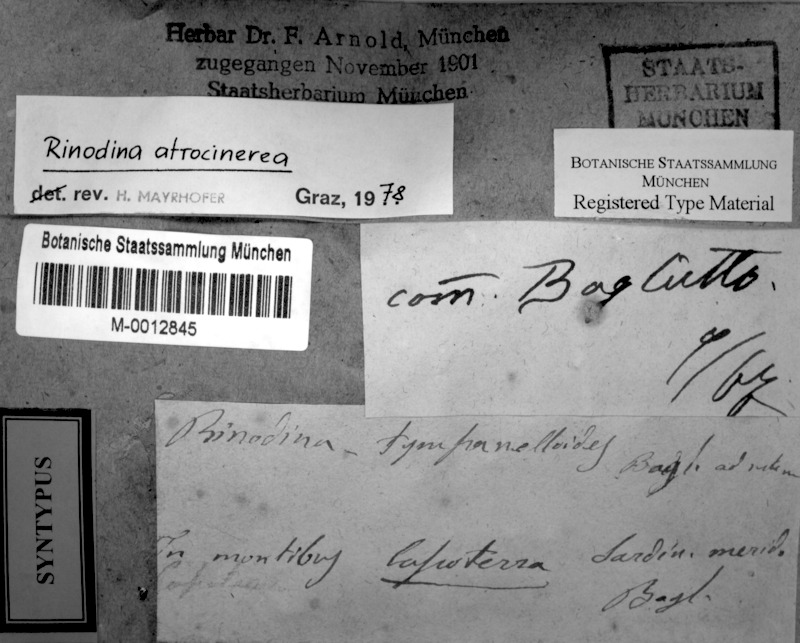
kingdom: Fungi
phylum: Ascomycota
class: Lecanoromycetes
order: Caliciales
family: Physciaceae
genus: Helmutiopsis
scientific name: Helmutiopsis atrocinerea
